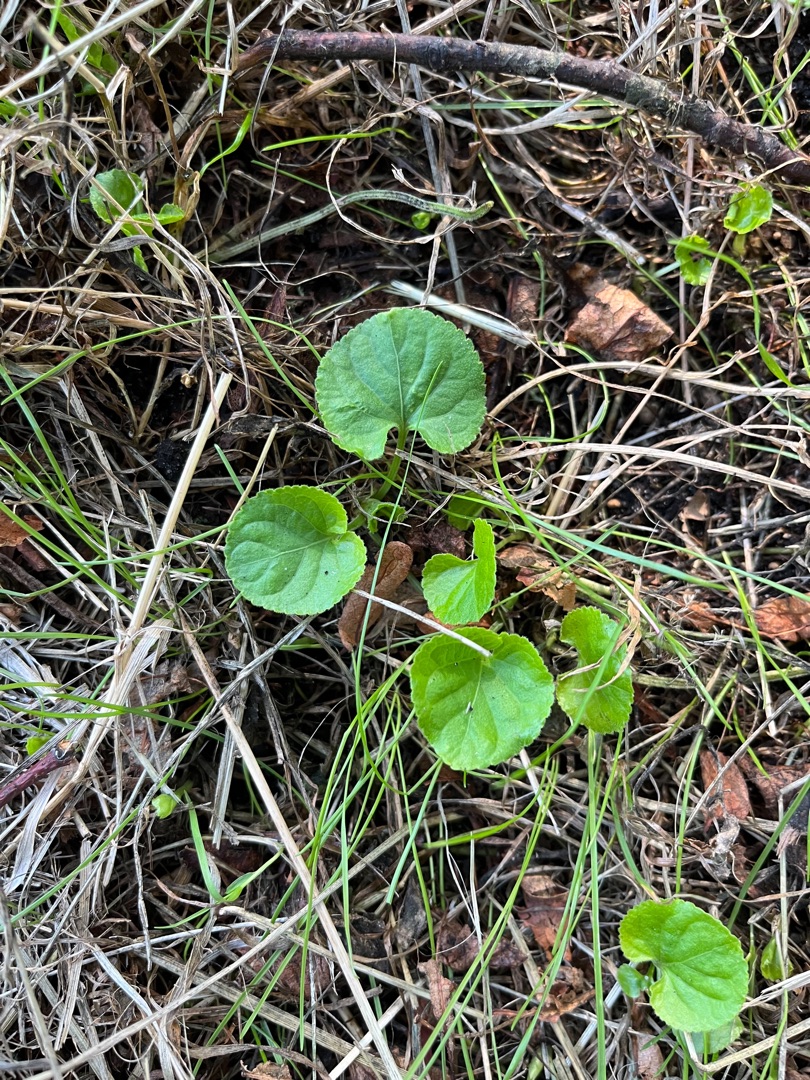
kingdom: Plantae
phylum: Tracheophyta
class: Magnoliopsida
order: Malpighiales
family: Violaceae
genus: Viola
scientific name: Viola
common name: Violslægten
